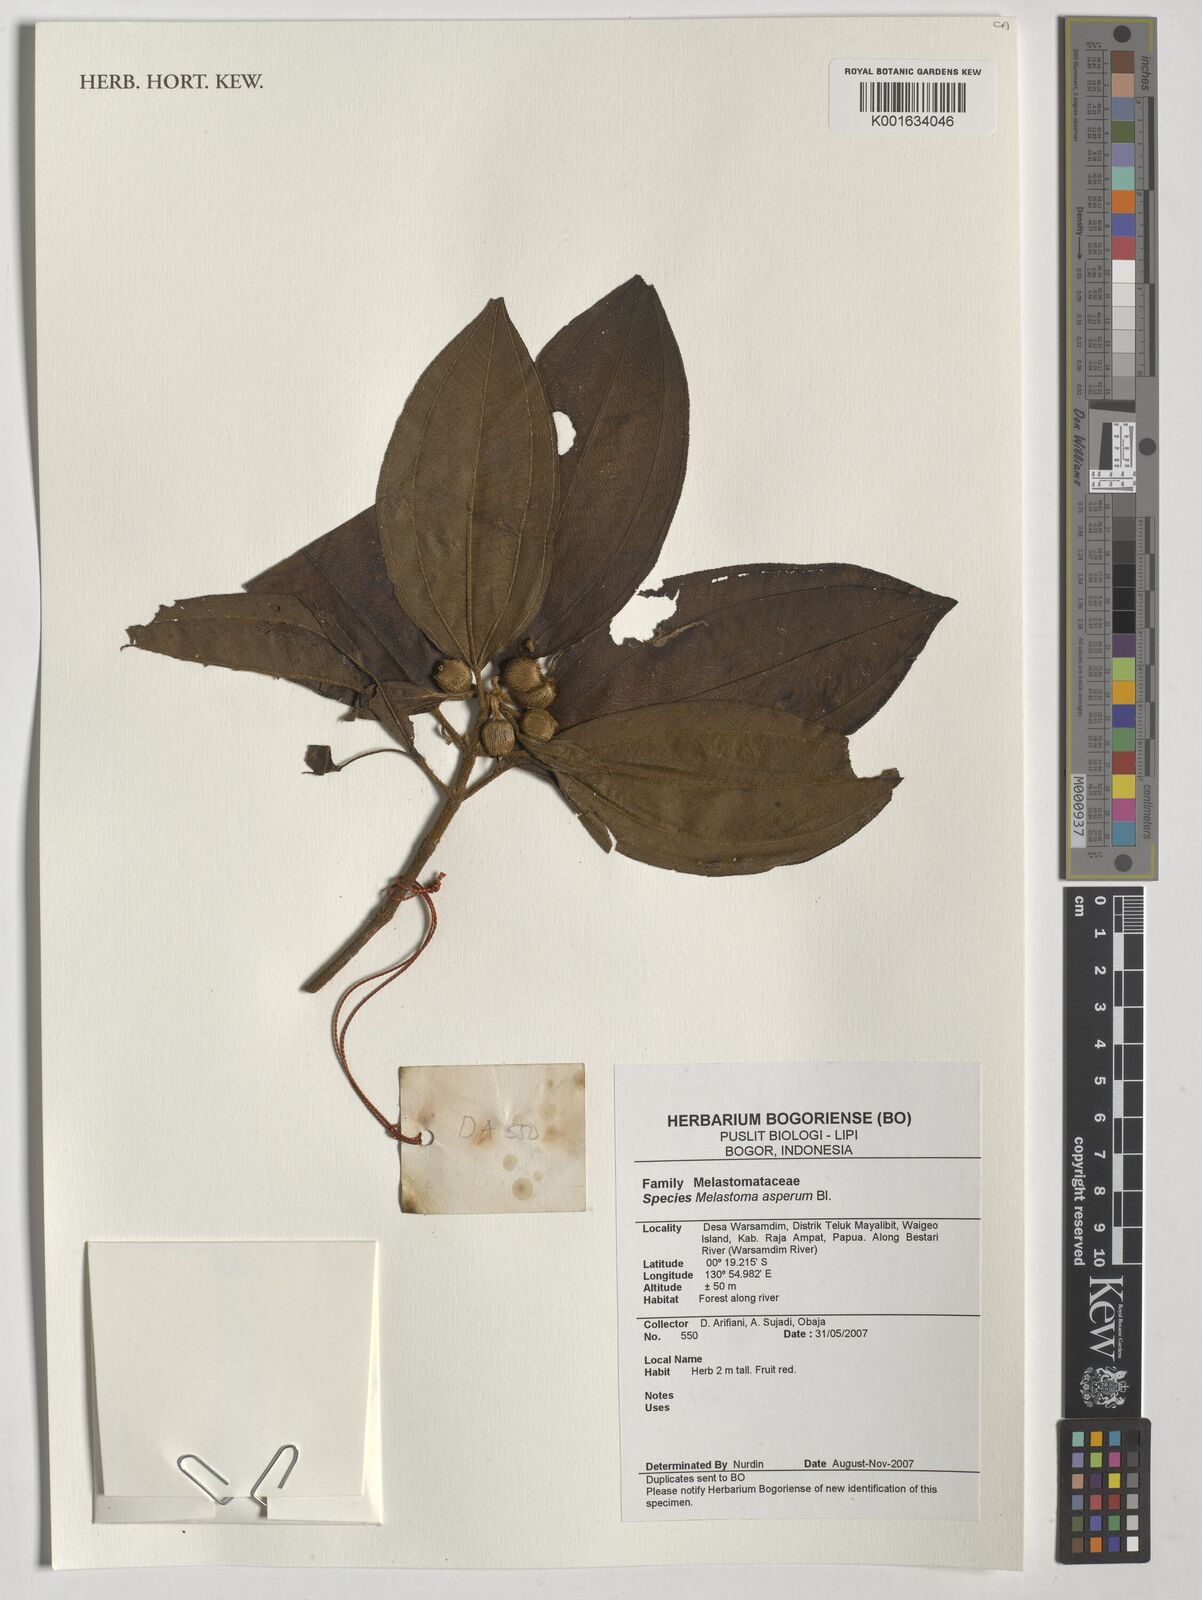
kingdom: Plantae
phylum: Tracheophyta
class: Magnoliopsida
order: Myrtales
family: Melastomataceae
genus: Melastoma
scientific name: Melastoma zollingeri
